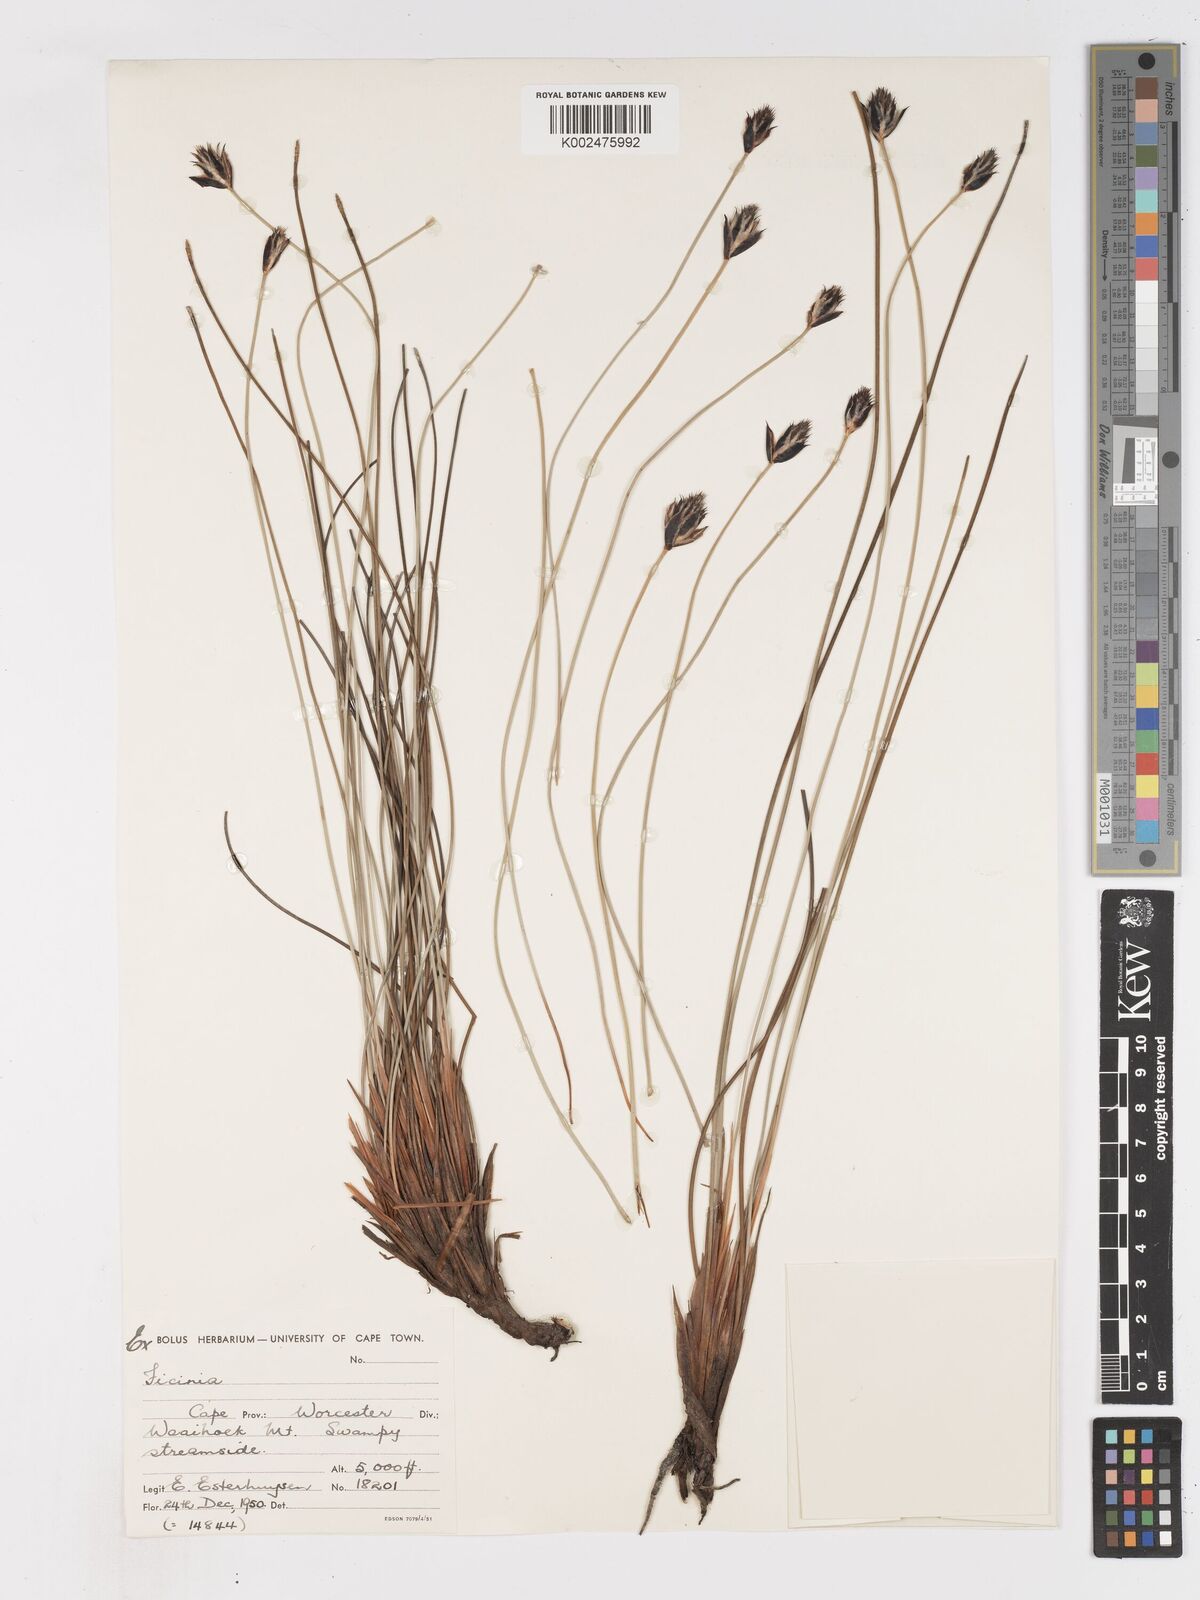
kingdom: Plantae
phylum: Tracheophyta
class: Liliopsida
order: Poales
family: Cyperaceae
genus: Ficinia
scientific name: Ficinia gydomontana
